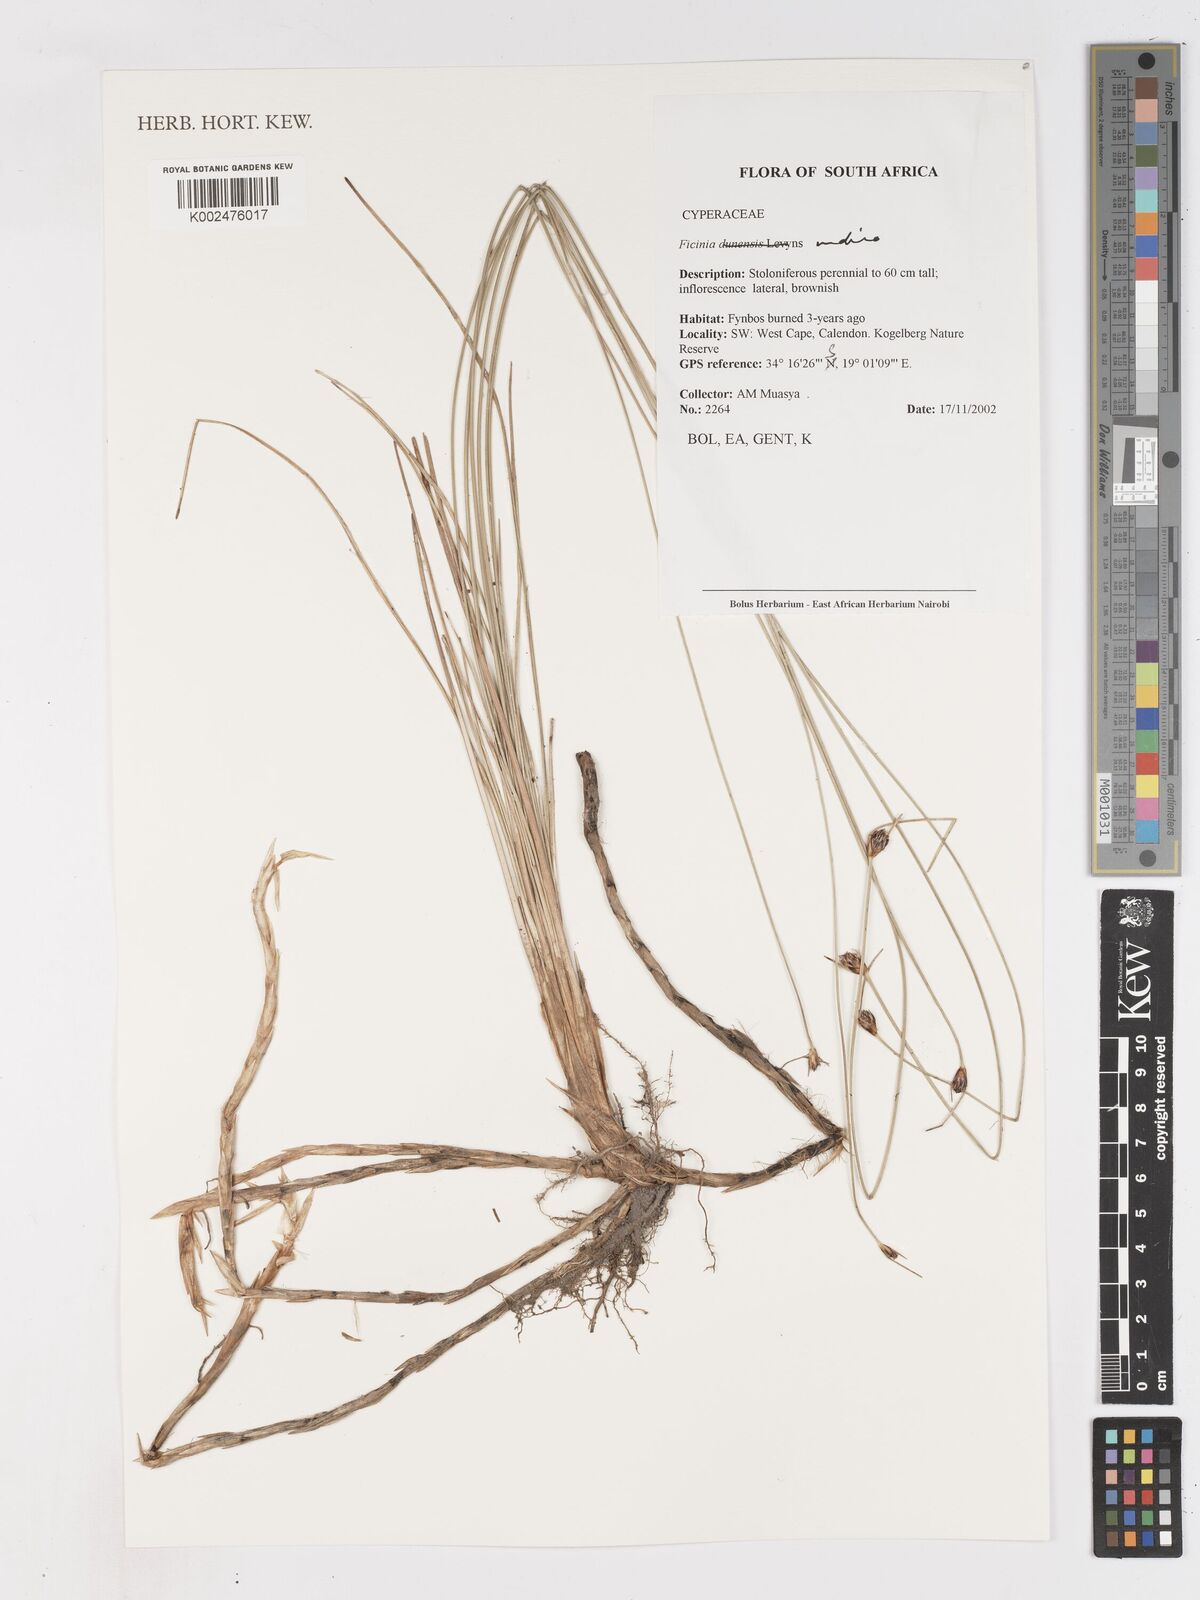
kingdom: Plantae
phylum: Tracheophyta
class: Liliopsida
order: Poales
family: Cyperaceae
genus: Ficinia
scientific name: Ficinia indica
